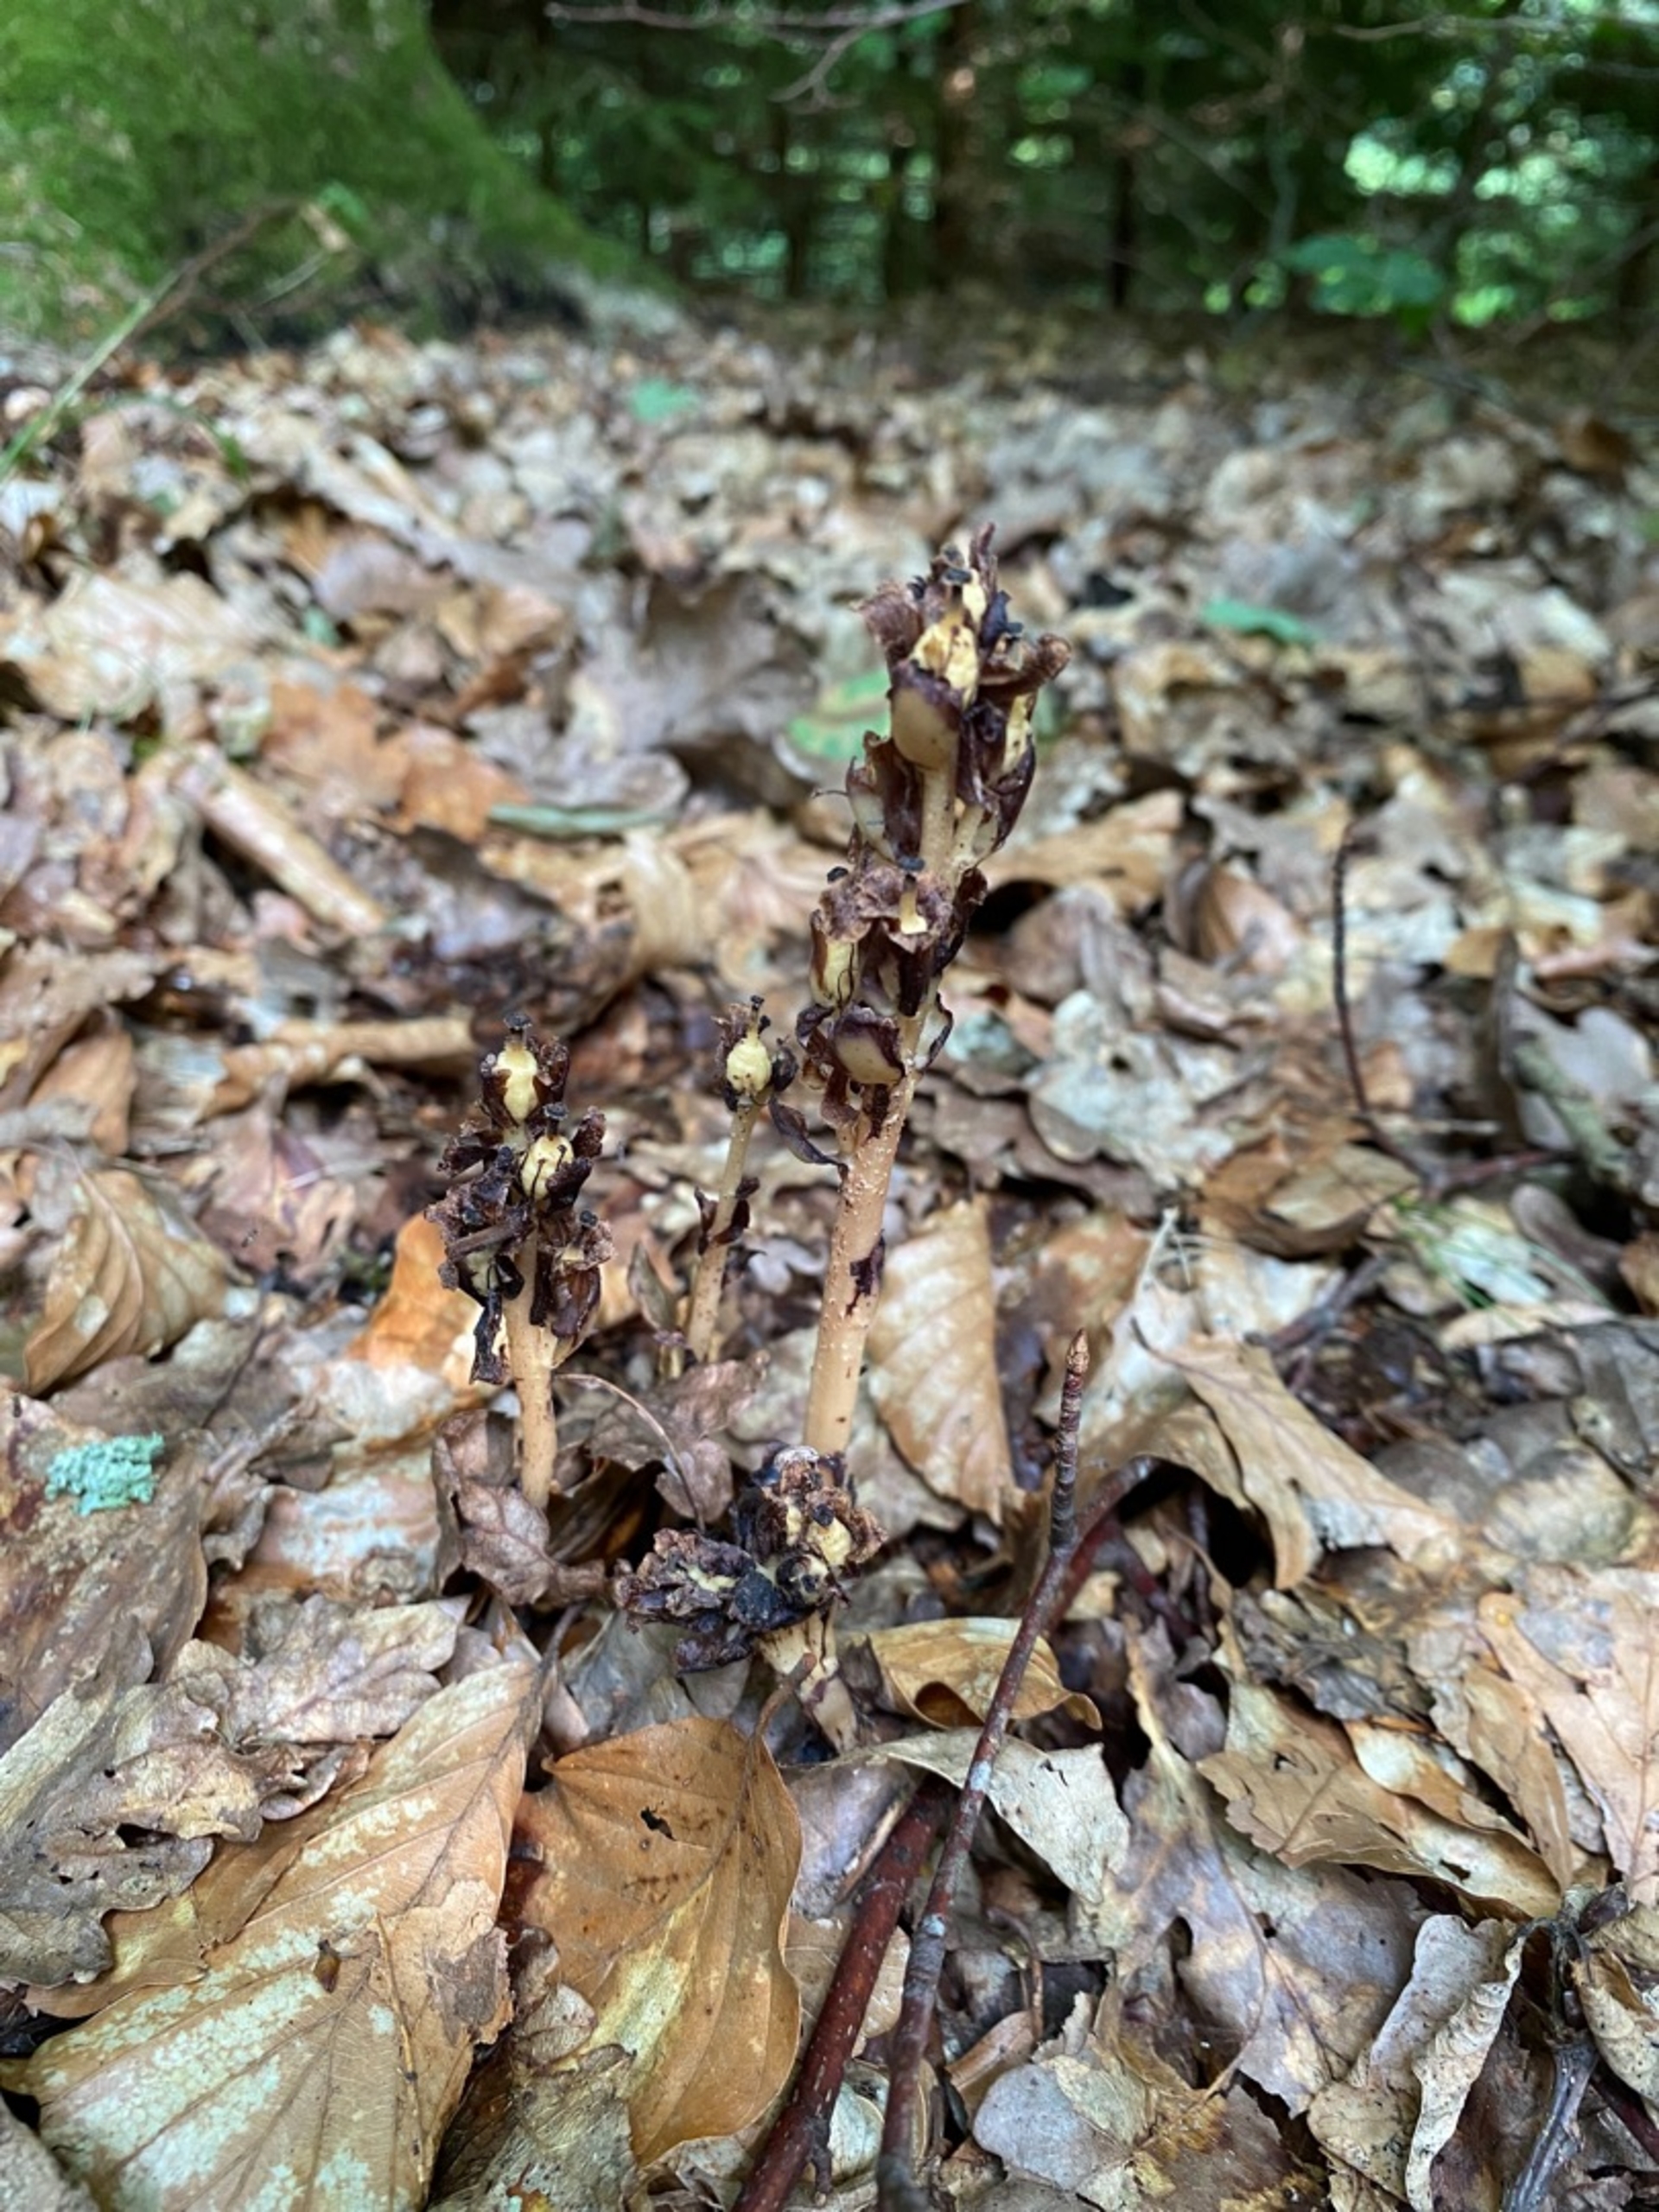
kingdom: Plantae
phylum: Tracheophyta
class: Magnoliopsida
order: Ericales
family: Ericaceae
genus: Hypopitys
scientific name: Hypopitys monotropa
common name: Snylterod
